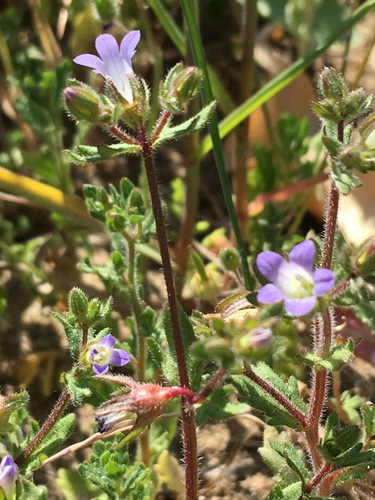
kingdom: Plantae
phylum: Tracheophyta
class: Magnoliopsida
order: Asterales
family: Campanulaceae
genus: Campanula
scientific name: Campanula erinus
